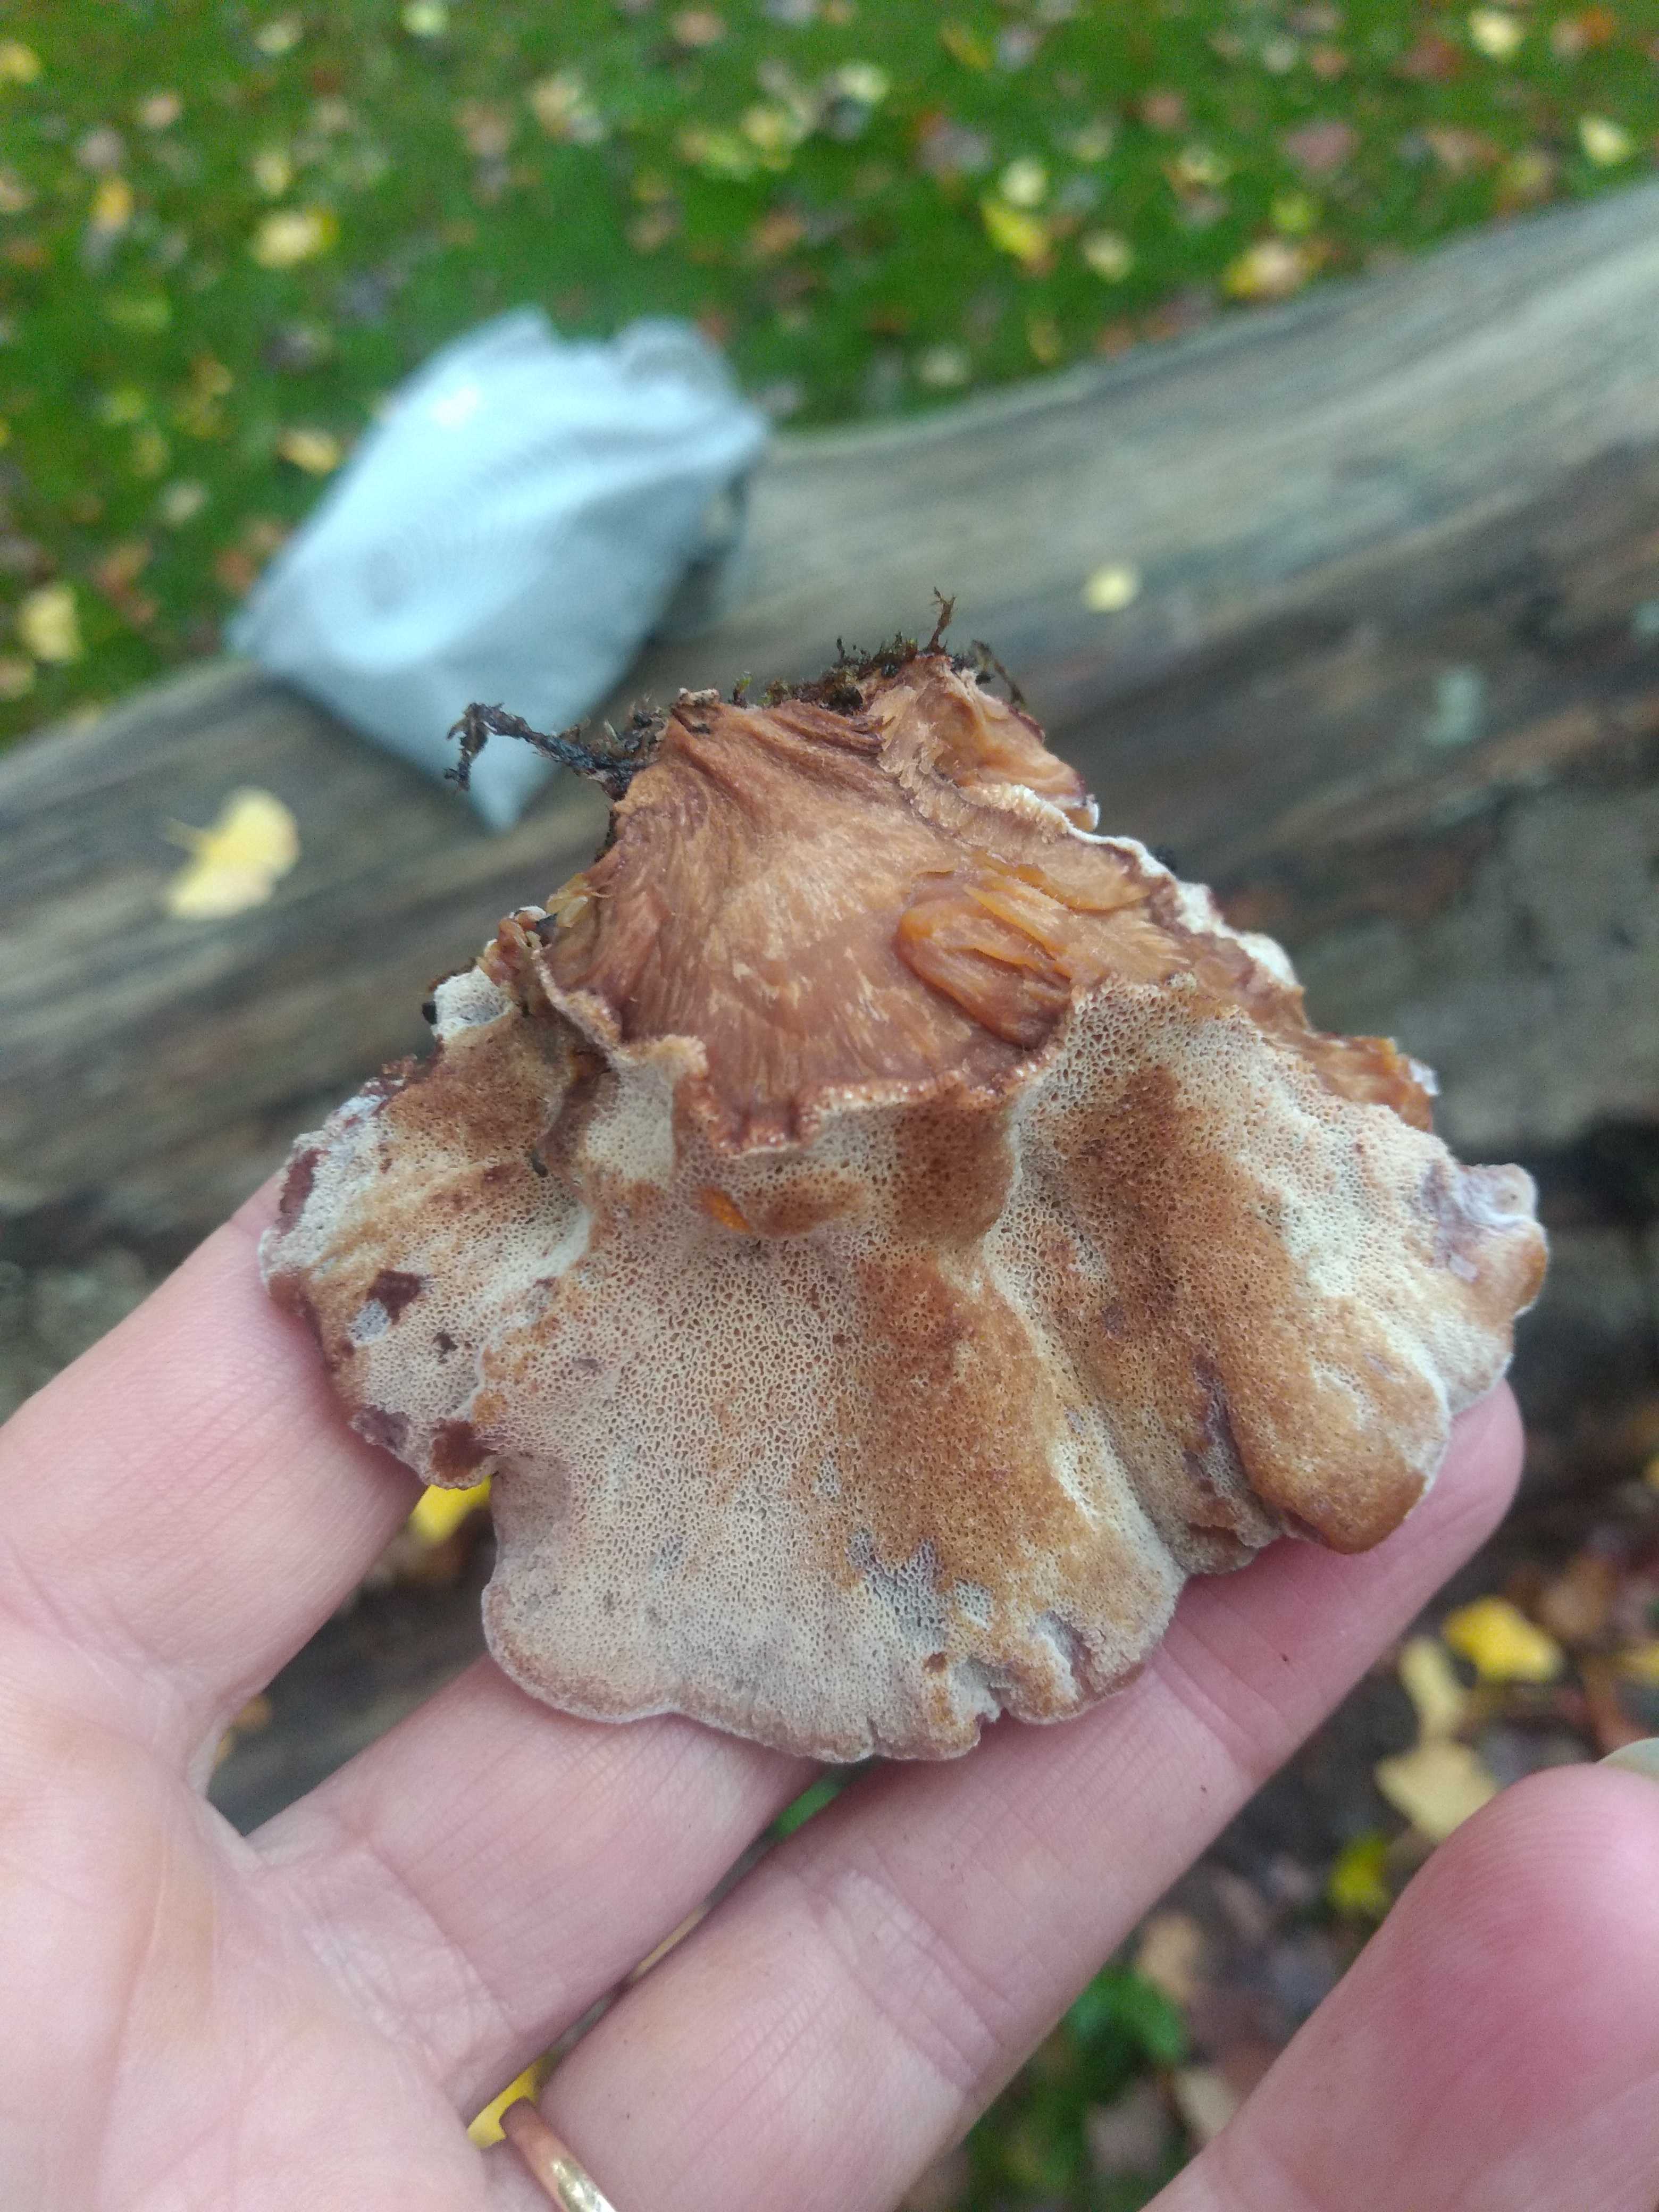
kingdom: Fungi
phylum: Basidiomycota
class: Agaricomycetes
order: Polyporales
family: Ischnodermataceae
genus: Ischnoderma
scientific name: Ischnoderma resinosum
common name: løv-tjæreporesvamp
